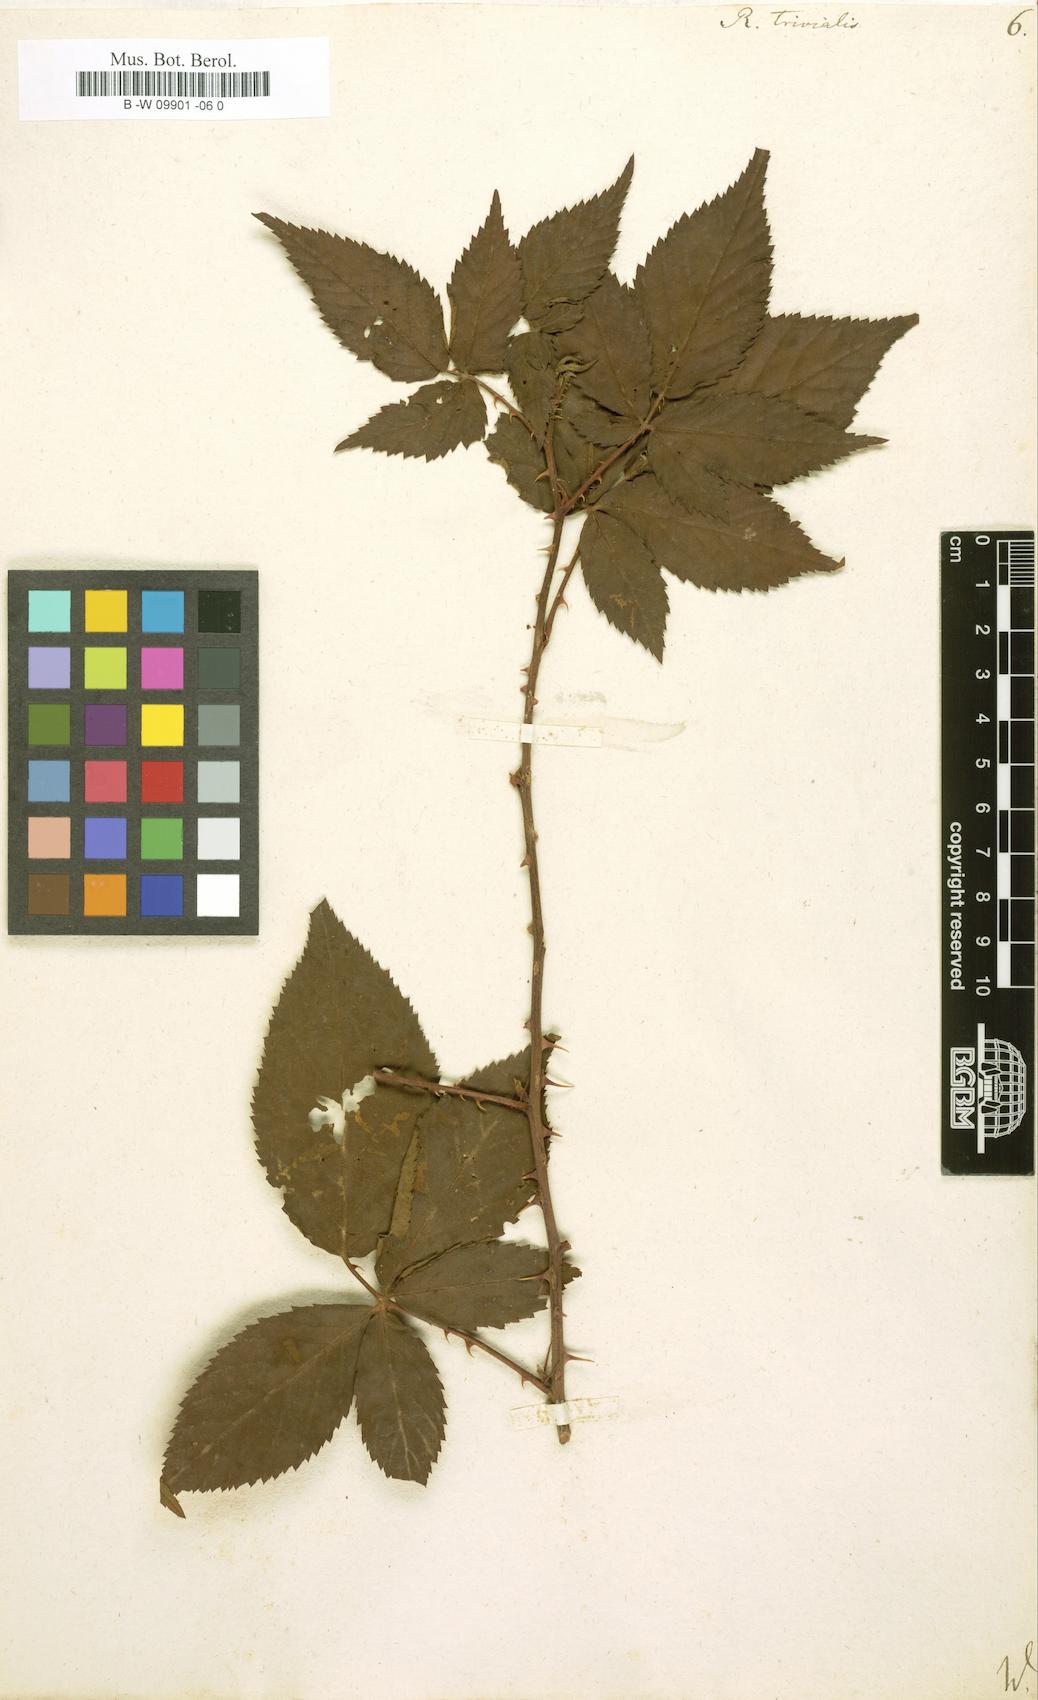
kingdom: Plantae
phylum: Tracheophyta
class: Magnoliopsida
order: Rosales
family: Rosaceae
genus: Rubus
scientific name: Rubus trivialis
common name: Southern dewberry
